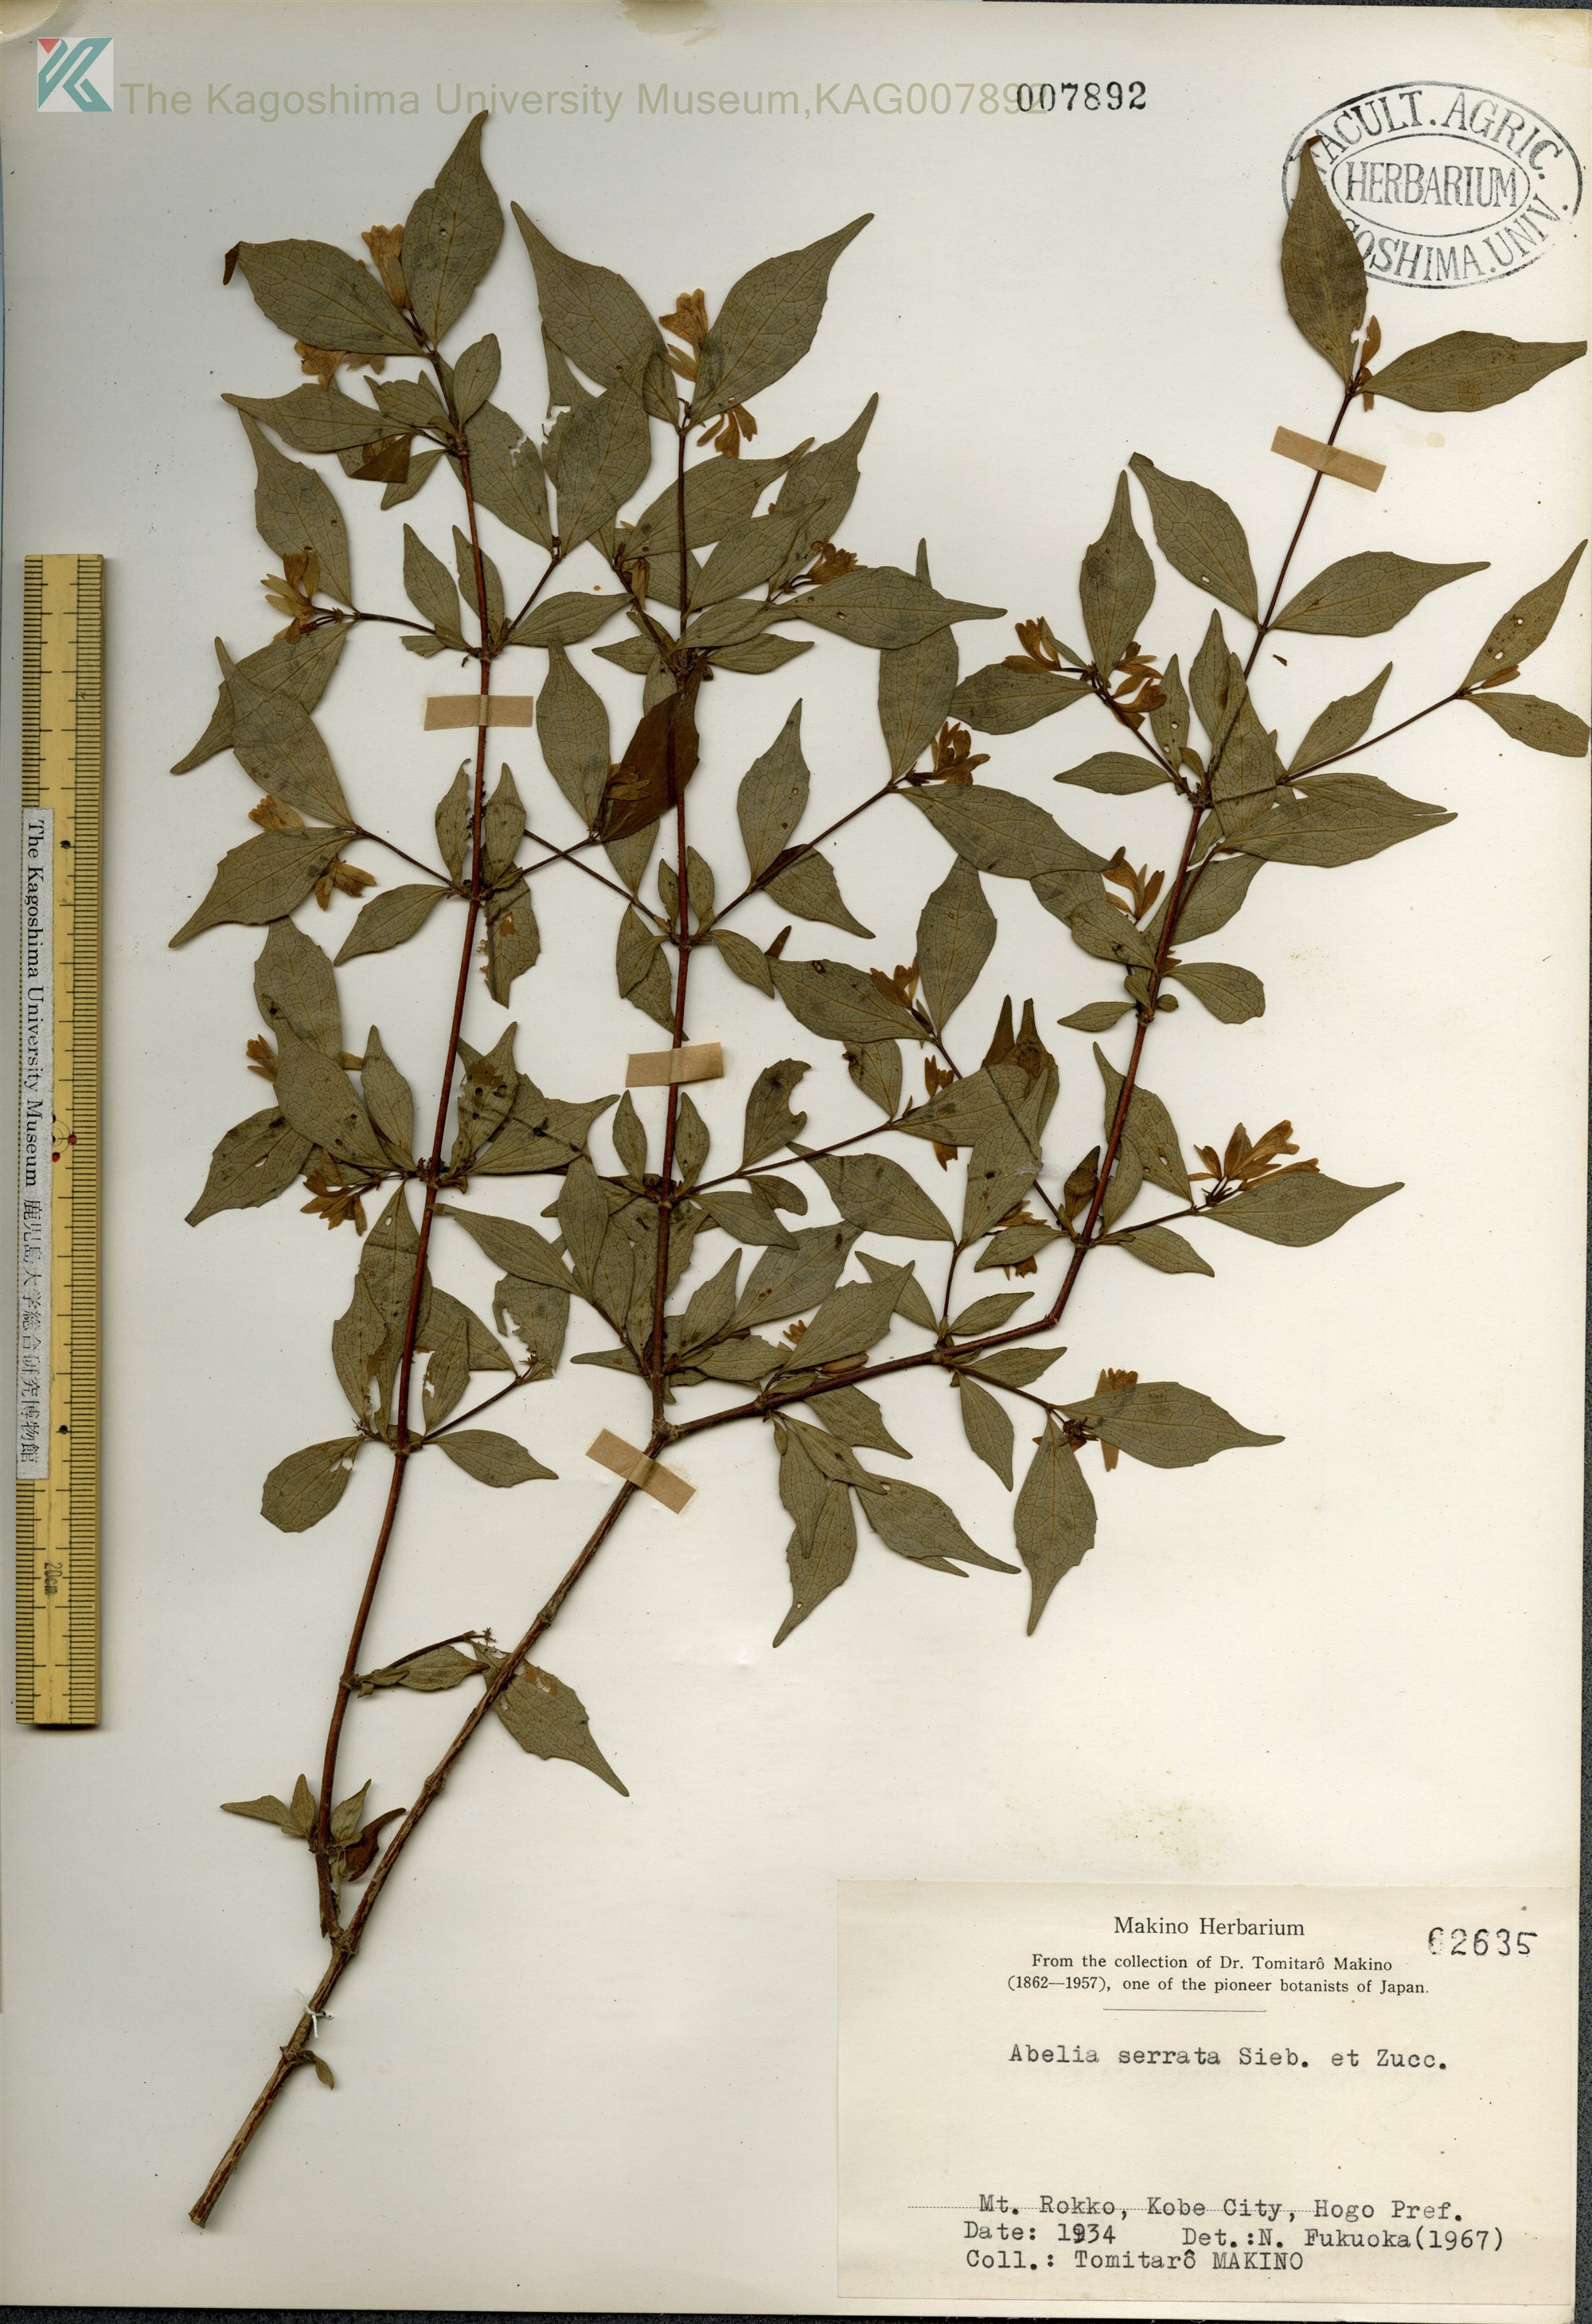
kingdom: Plantae
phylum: Tracheophyta
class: Magnoliopsida
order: Dipsacales
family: Caprifoliaceae
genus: Diabelia
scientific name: Diabelia serrata
